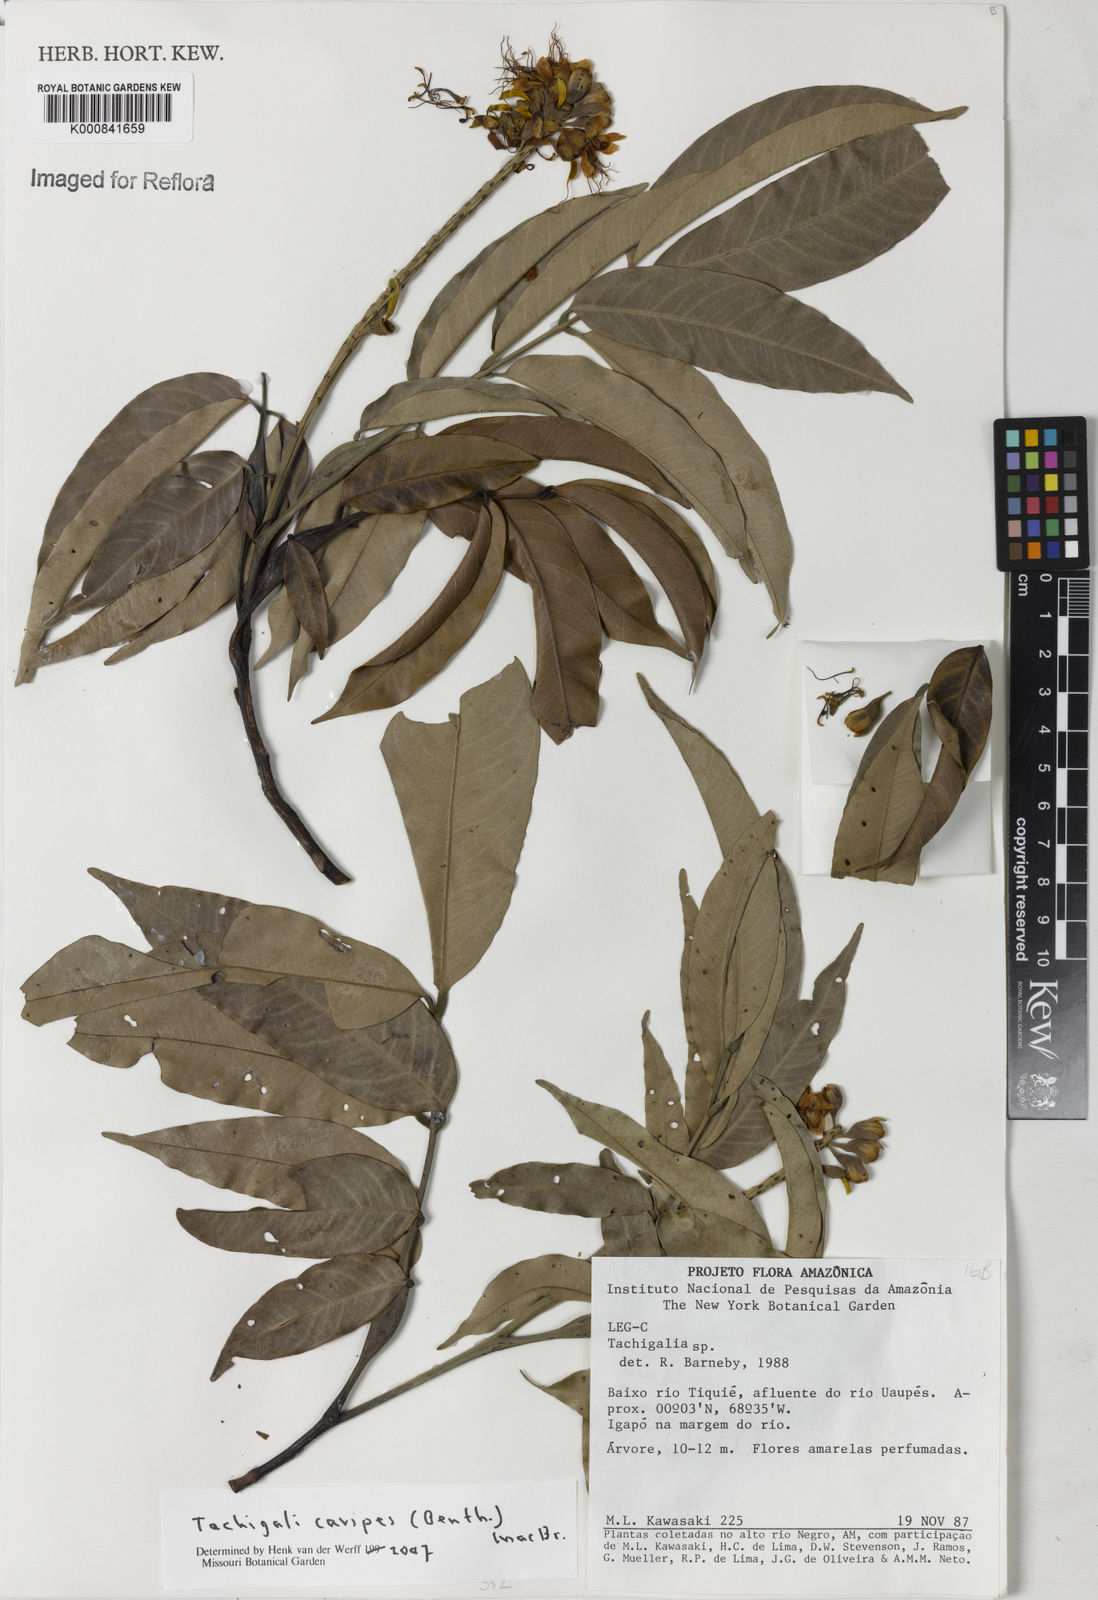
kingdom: Plantae
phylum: Tracheophyta
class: Magnoliopsida
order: Fabales
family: Fabaceae
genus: Tachigali
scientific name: Tachigali cavipes
